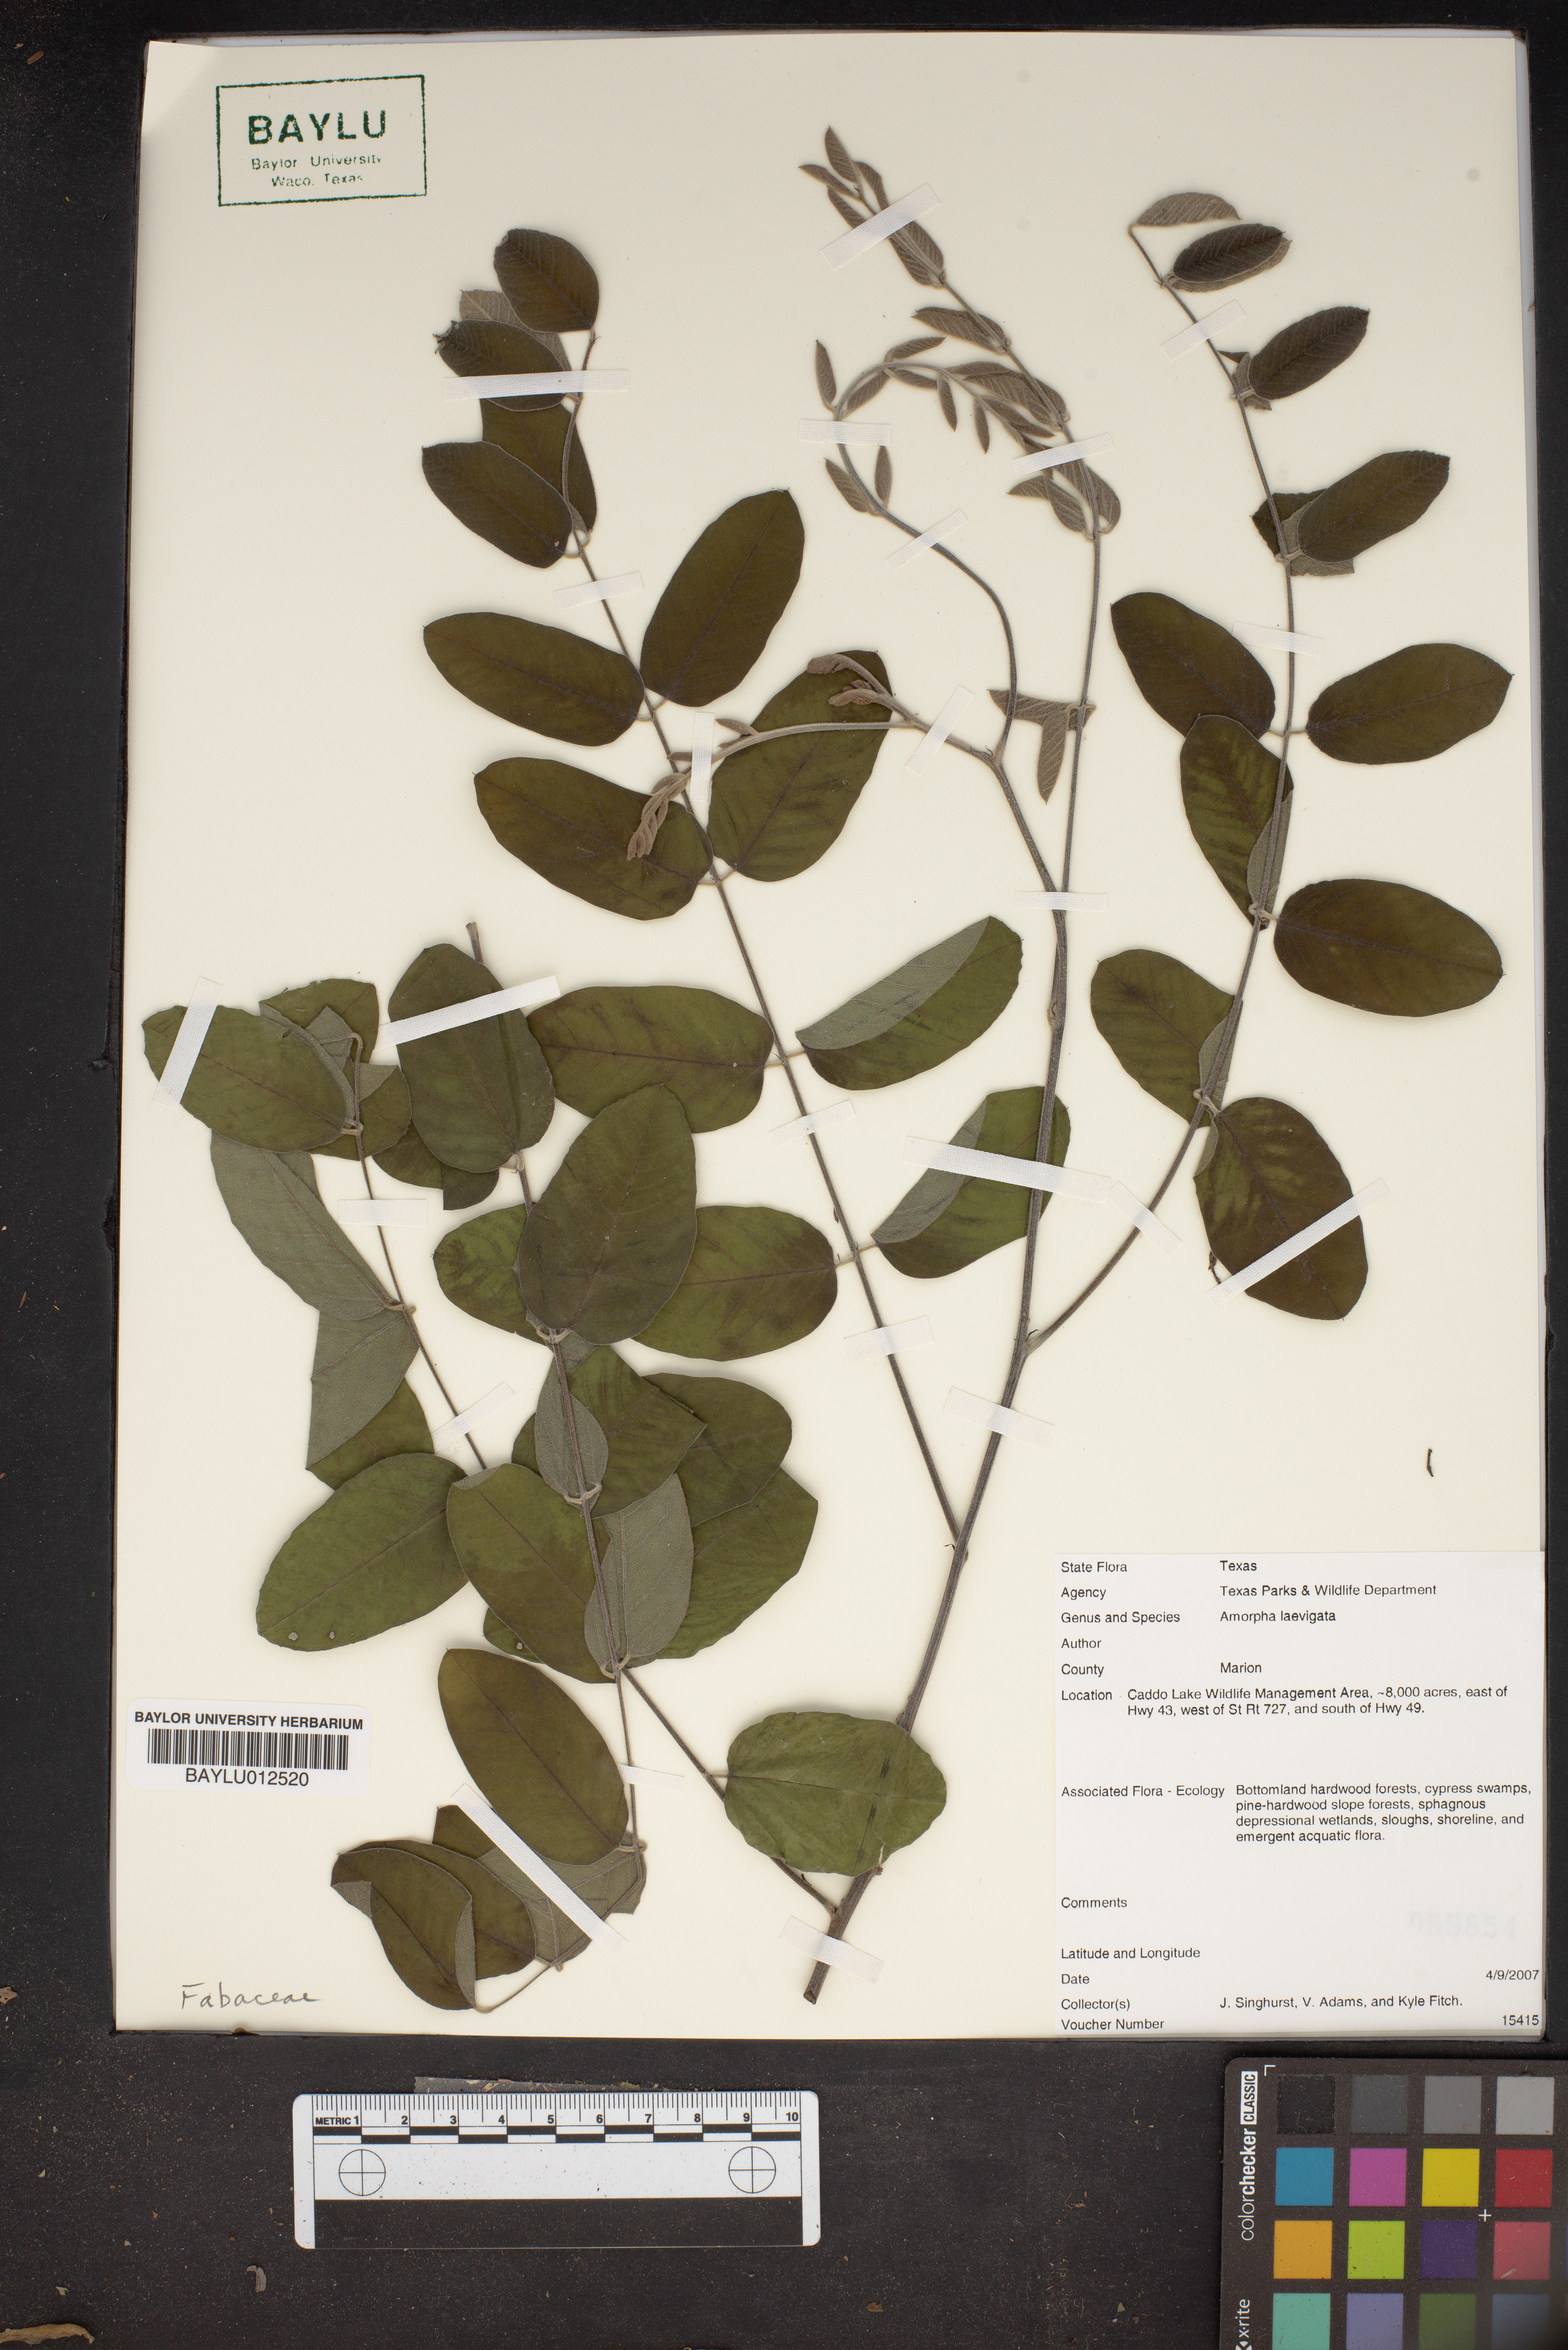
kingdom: Plantae
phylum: Tracheophyta
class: Magnoliopsida
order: Fabales
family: Fabaceae
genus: Amorpha
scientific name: Amorpha laevigata
